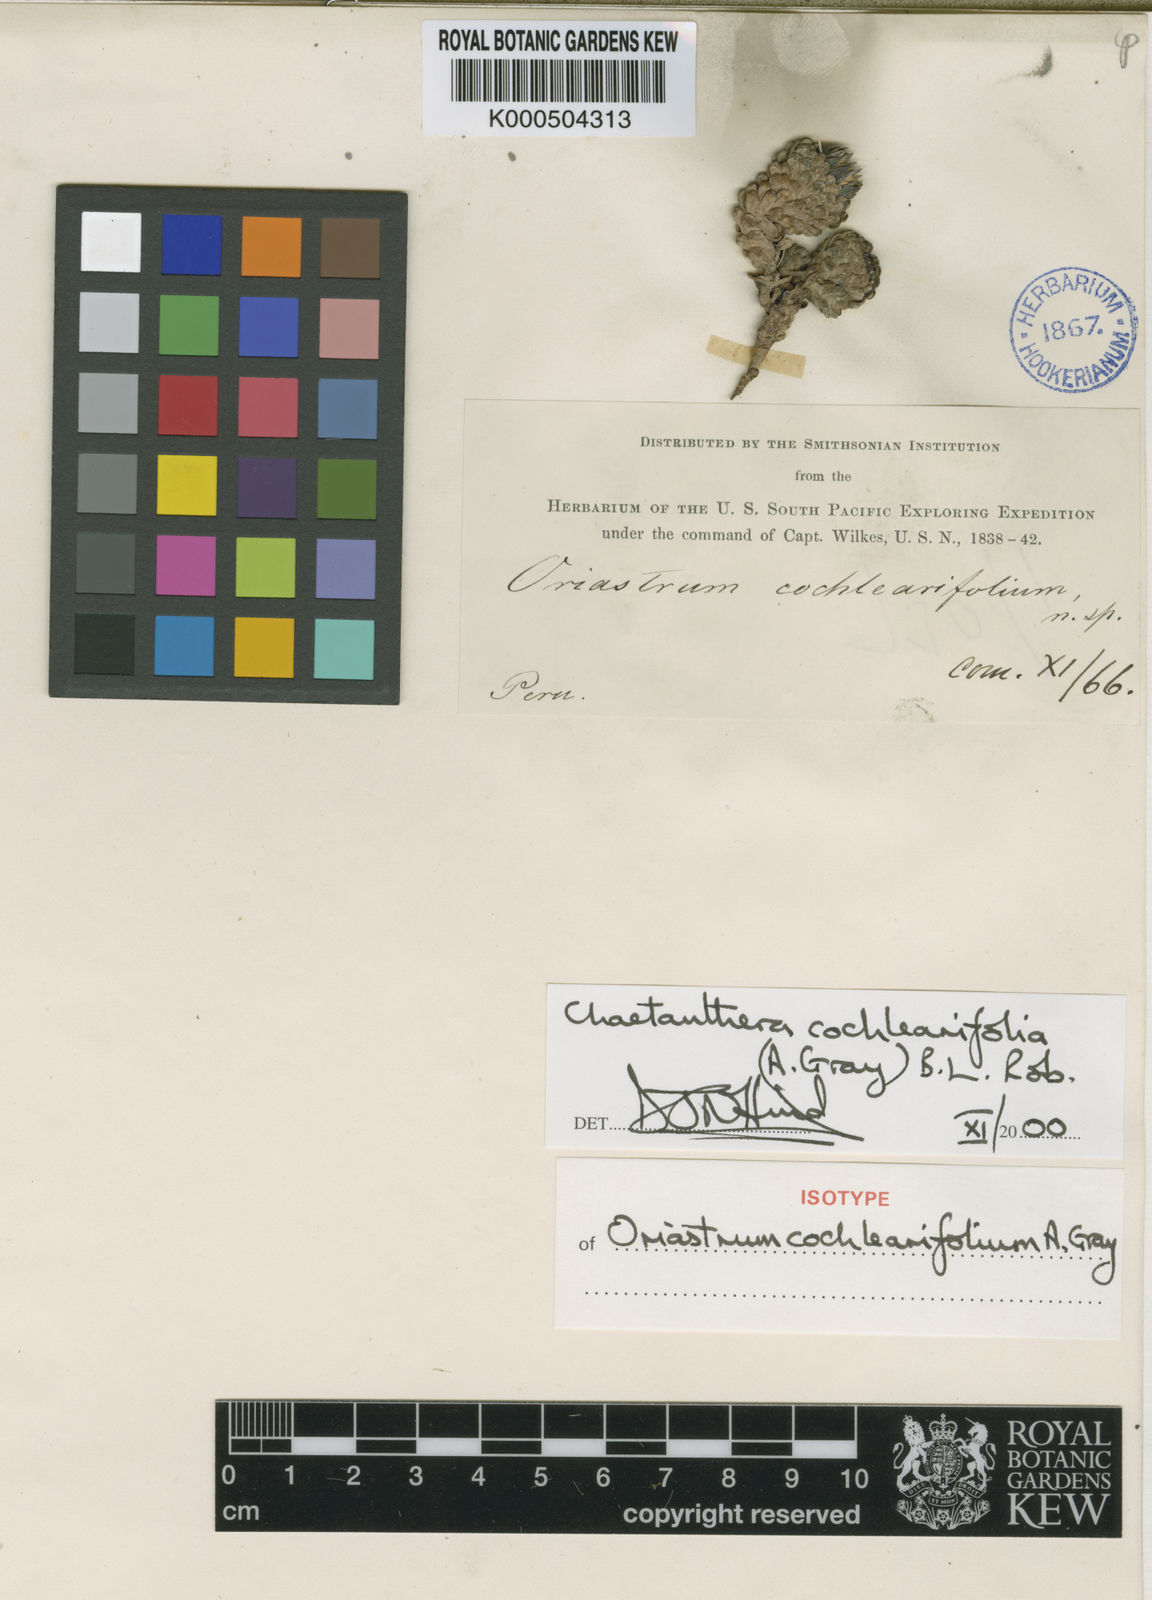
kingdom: Plantae
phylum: Tracheophyta
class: Magnoliopsida
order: Asterales
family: Asteraceae
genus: Chaetanthera
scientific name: Chaetanthera cochlearifolia
